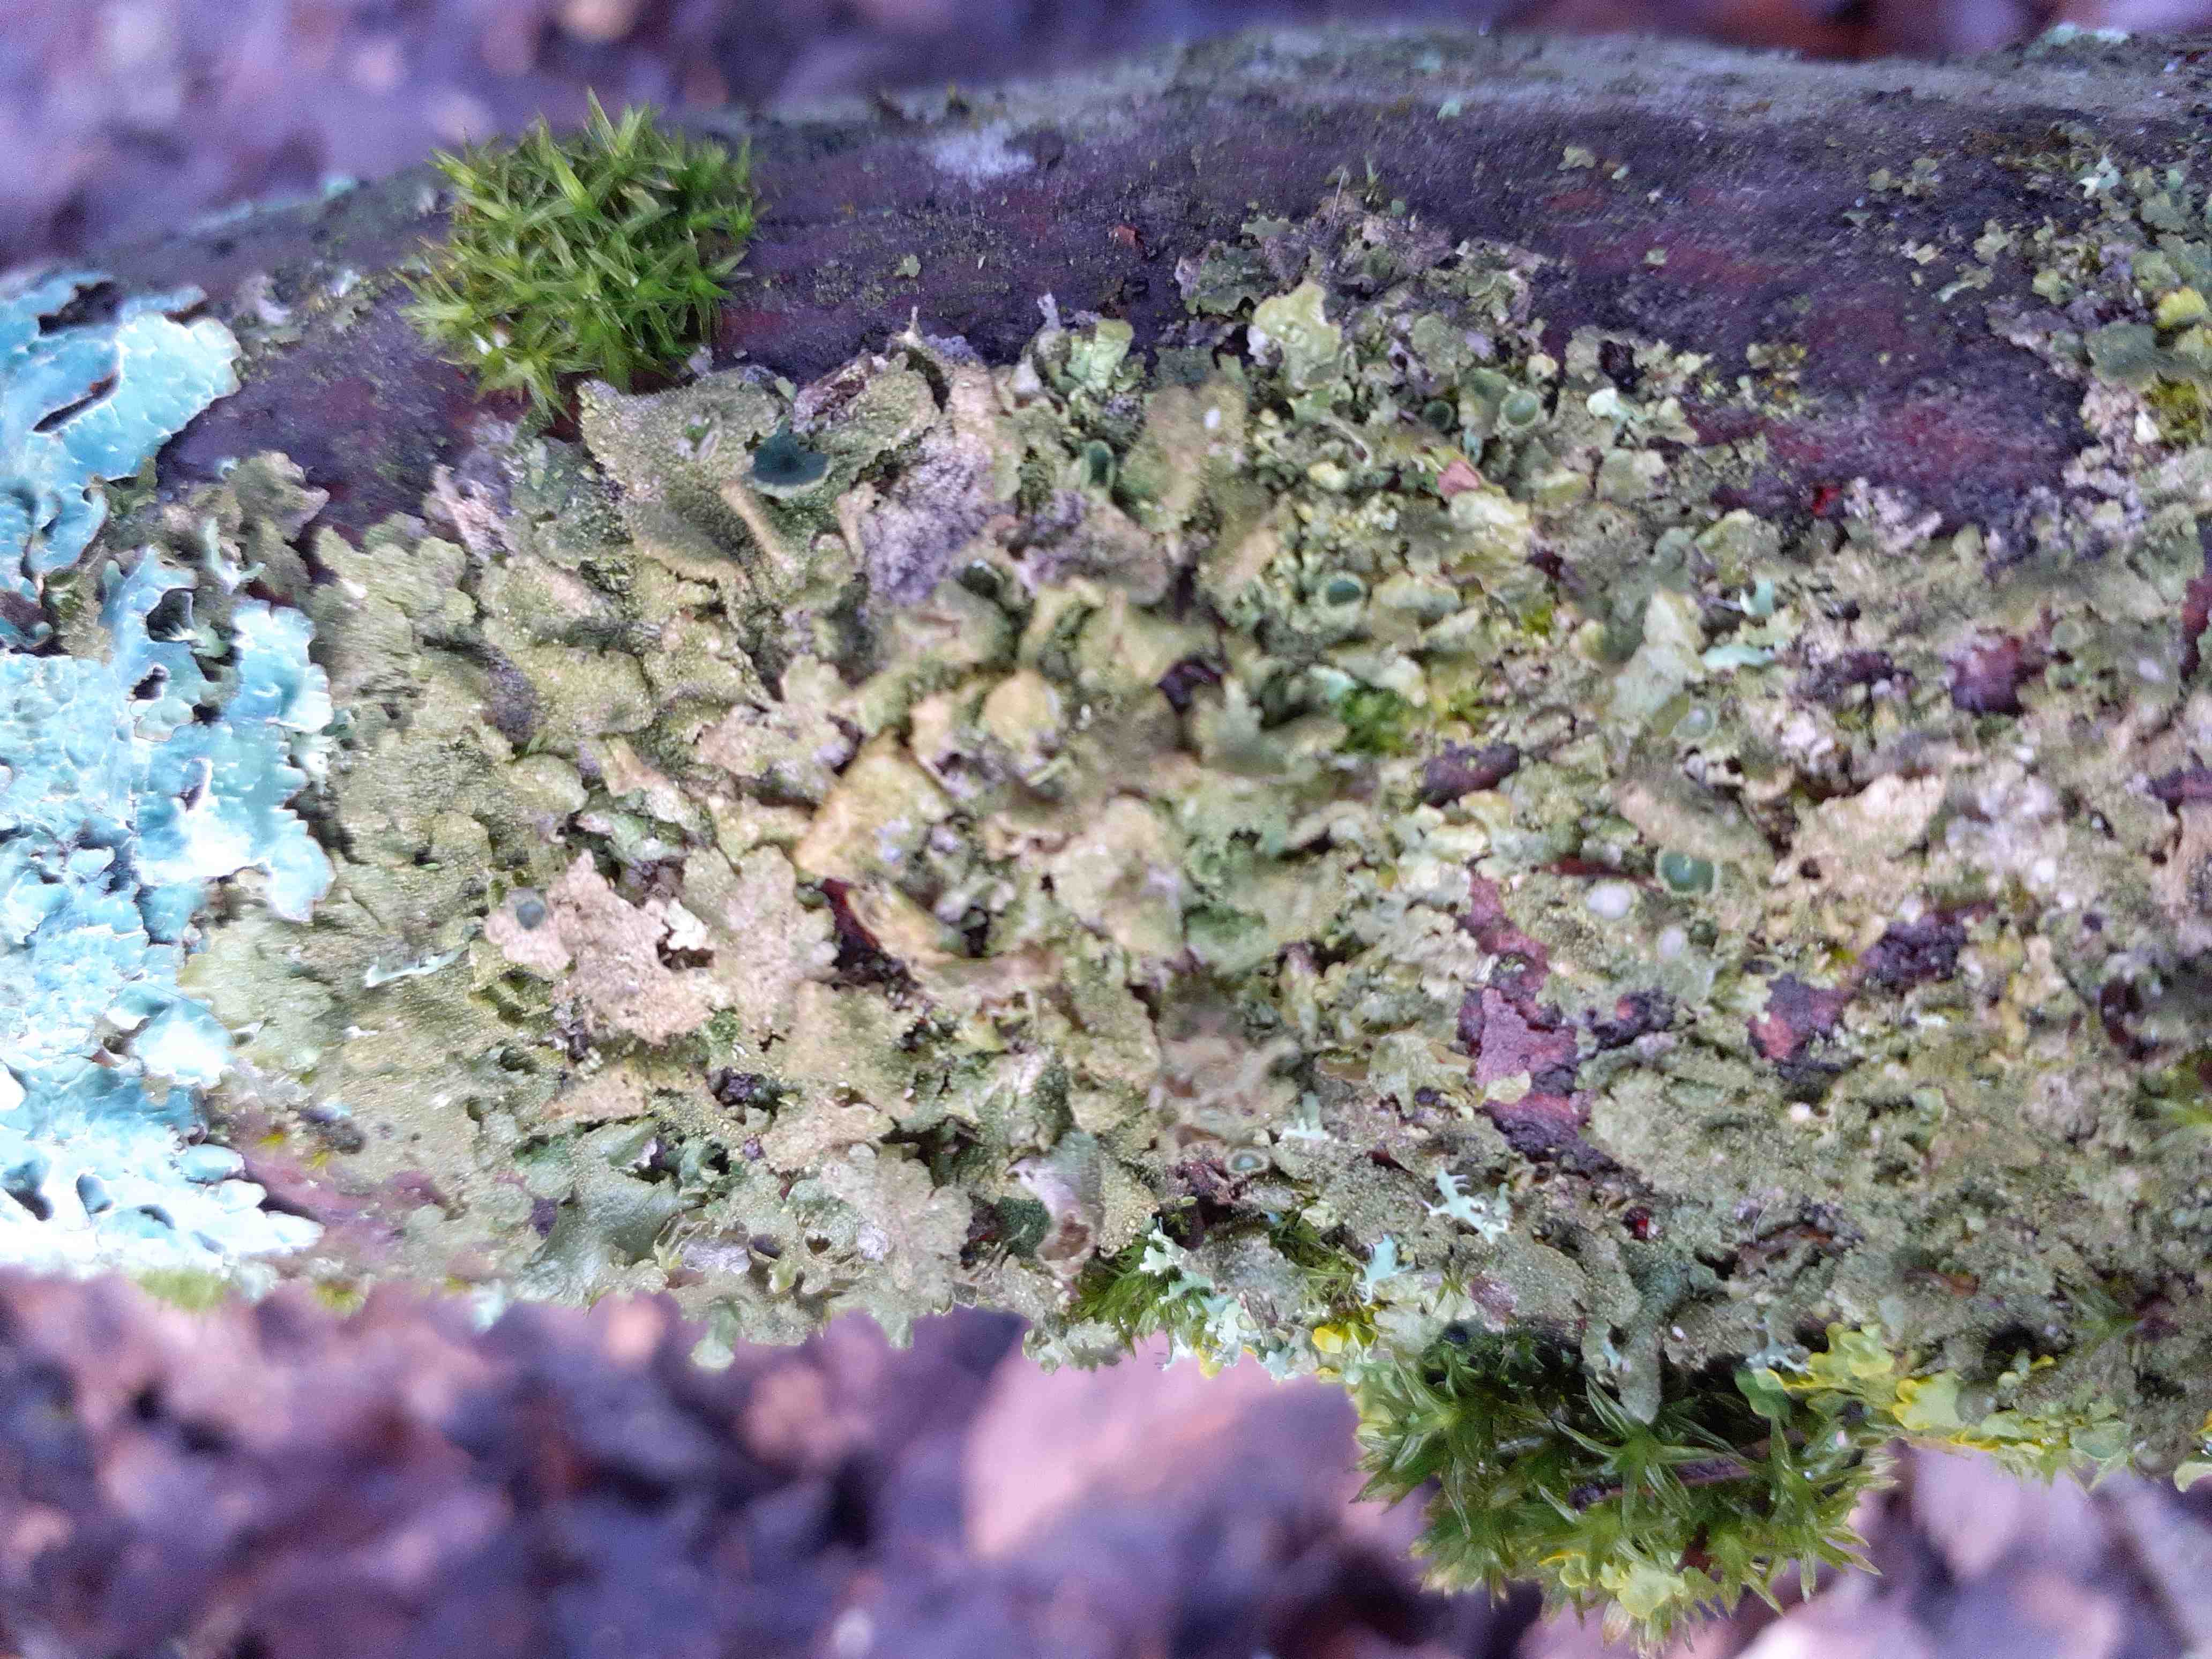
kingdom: Fungi
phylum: Ascomycota
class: Lecanoromycetes
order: Lecanorales
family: Parmeliaceae
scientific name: Parmeliaceae
